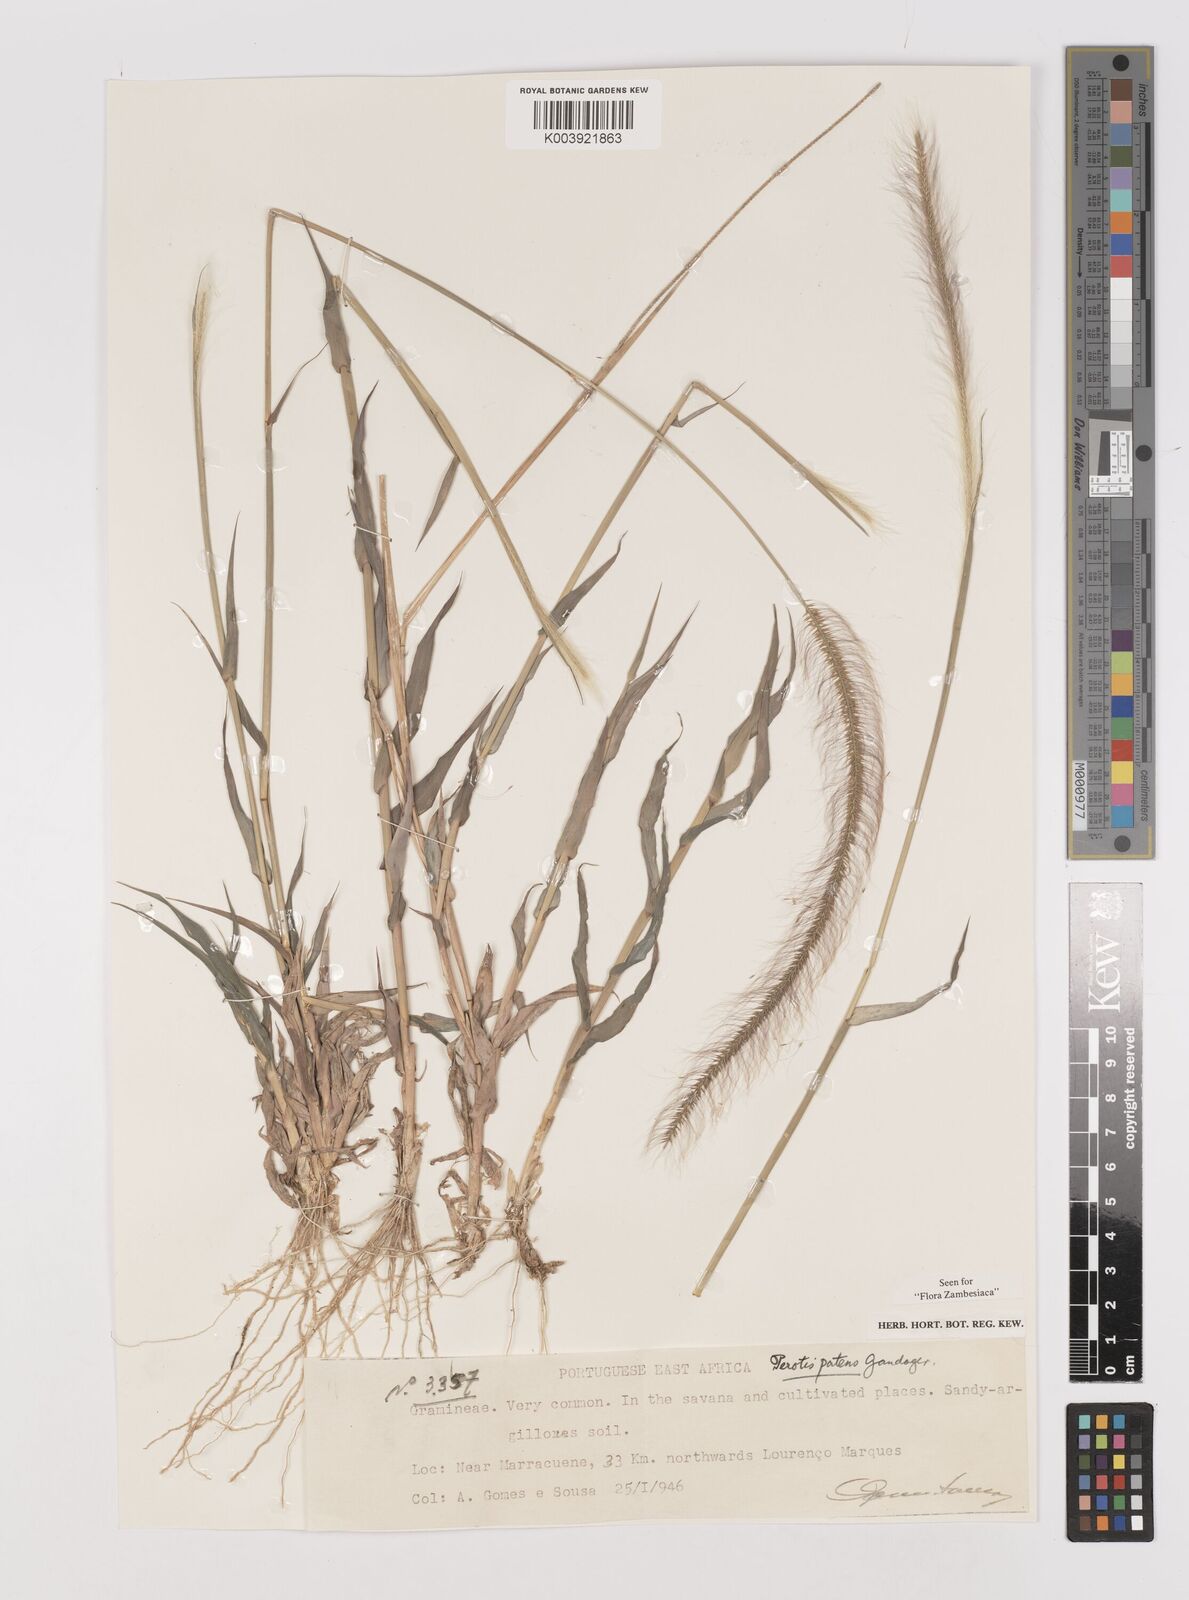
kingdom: Plantae
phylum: Tracheophyta
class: Liliopsida
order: Poales
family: Poaceae
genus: Perotis
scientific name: Perotis patens
